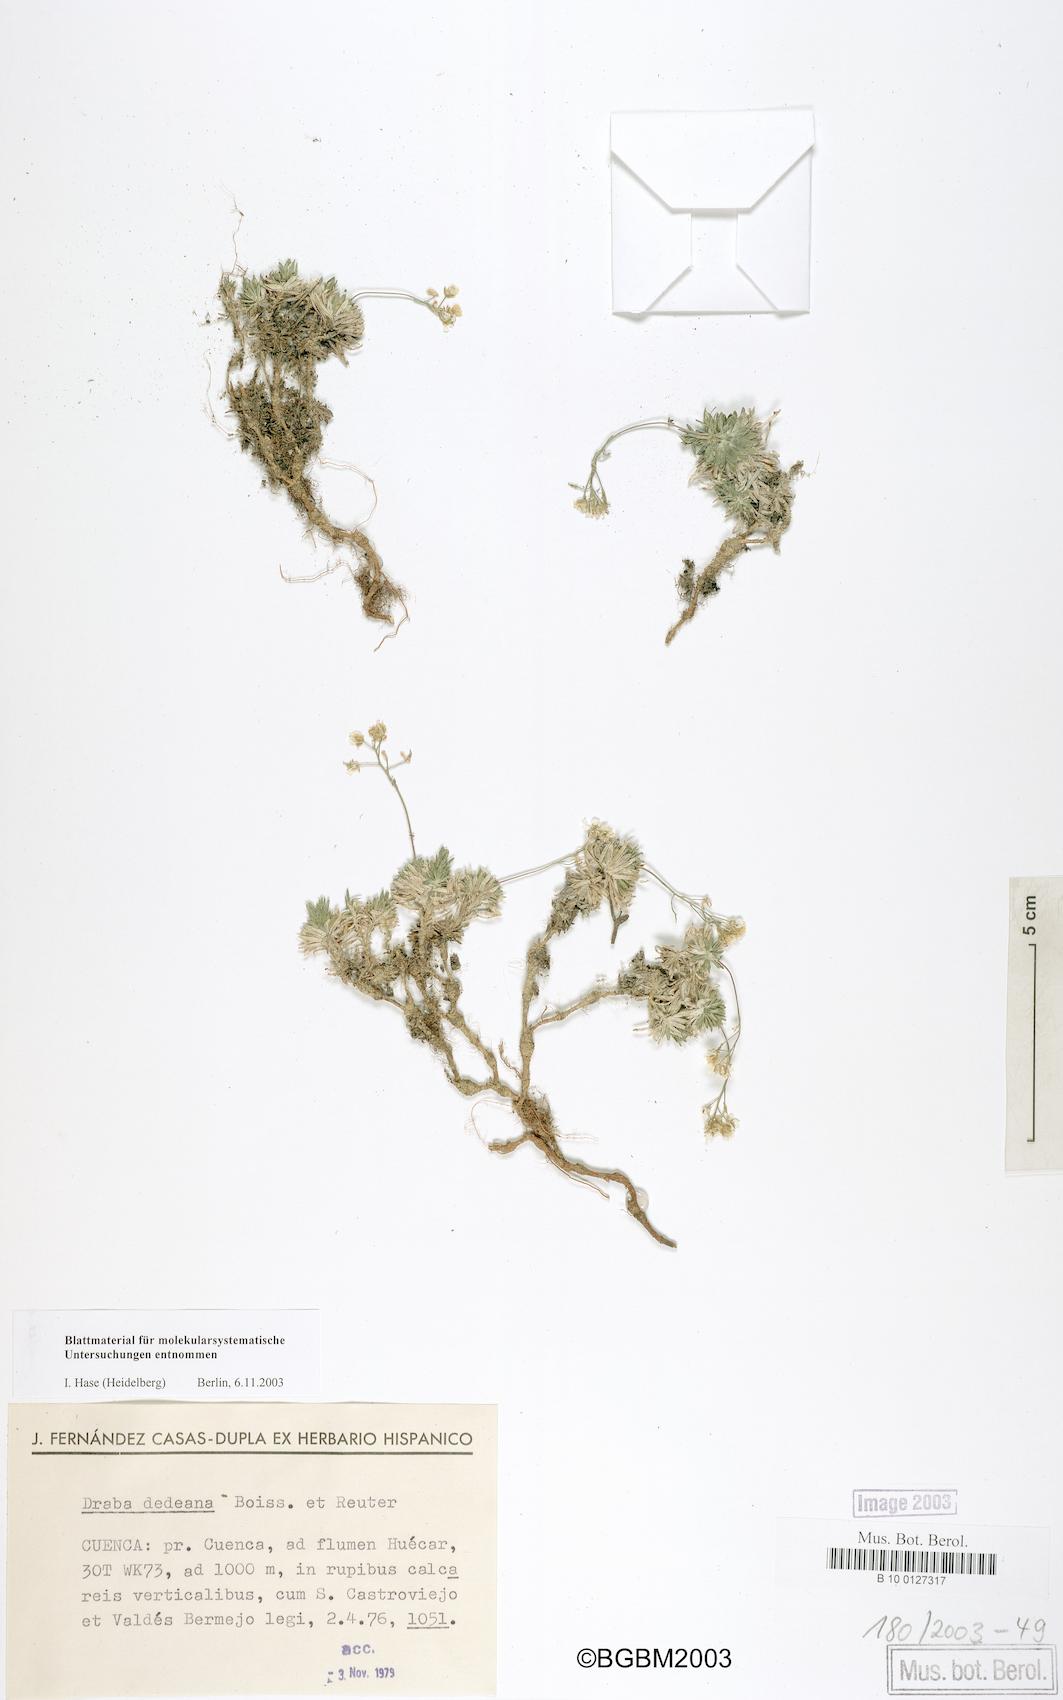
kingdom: Plantae
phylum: Tracheophyta
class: Magnoliopsida
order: Brassicales
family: Brassicaceae
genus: Draba
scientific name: Draba dedeana
